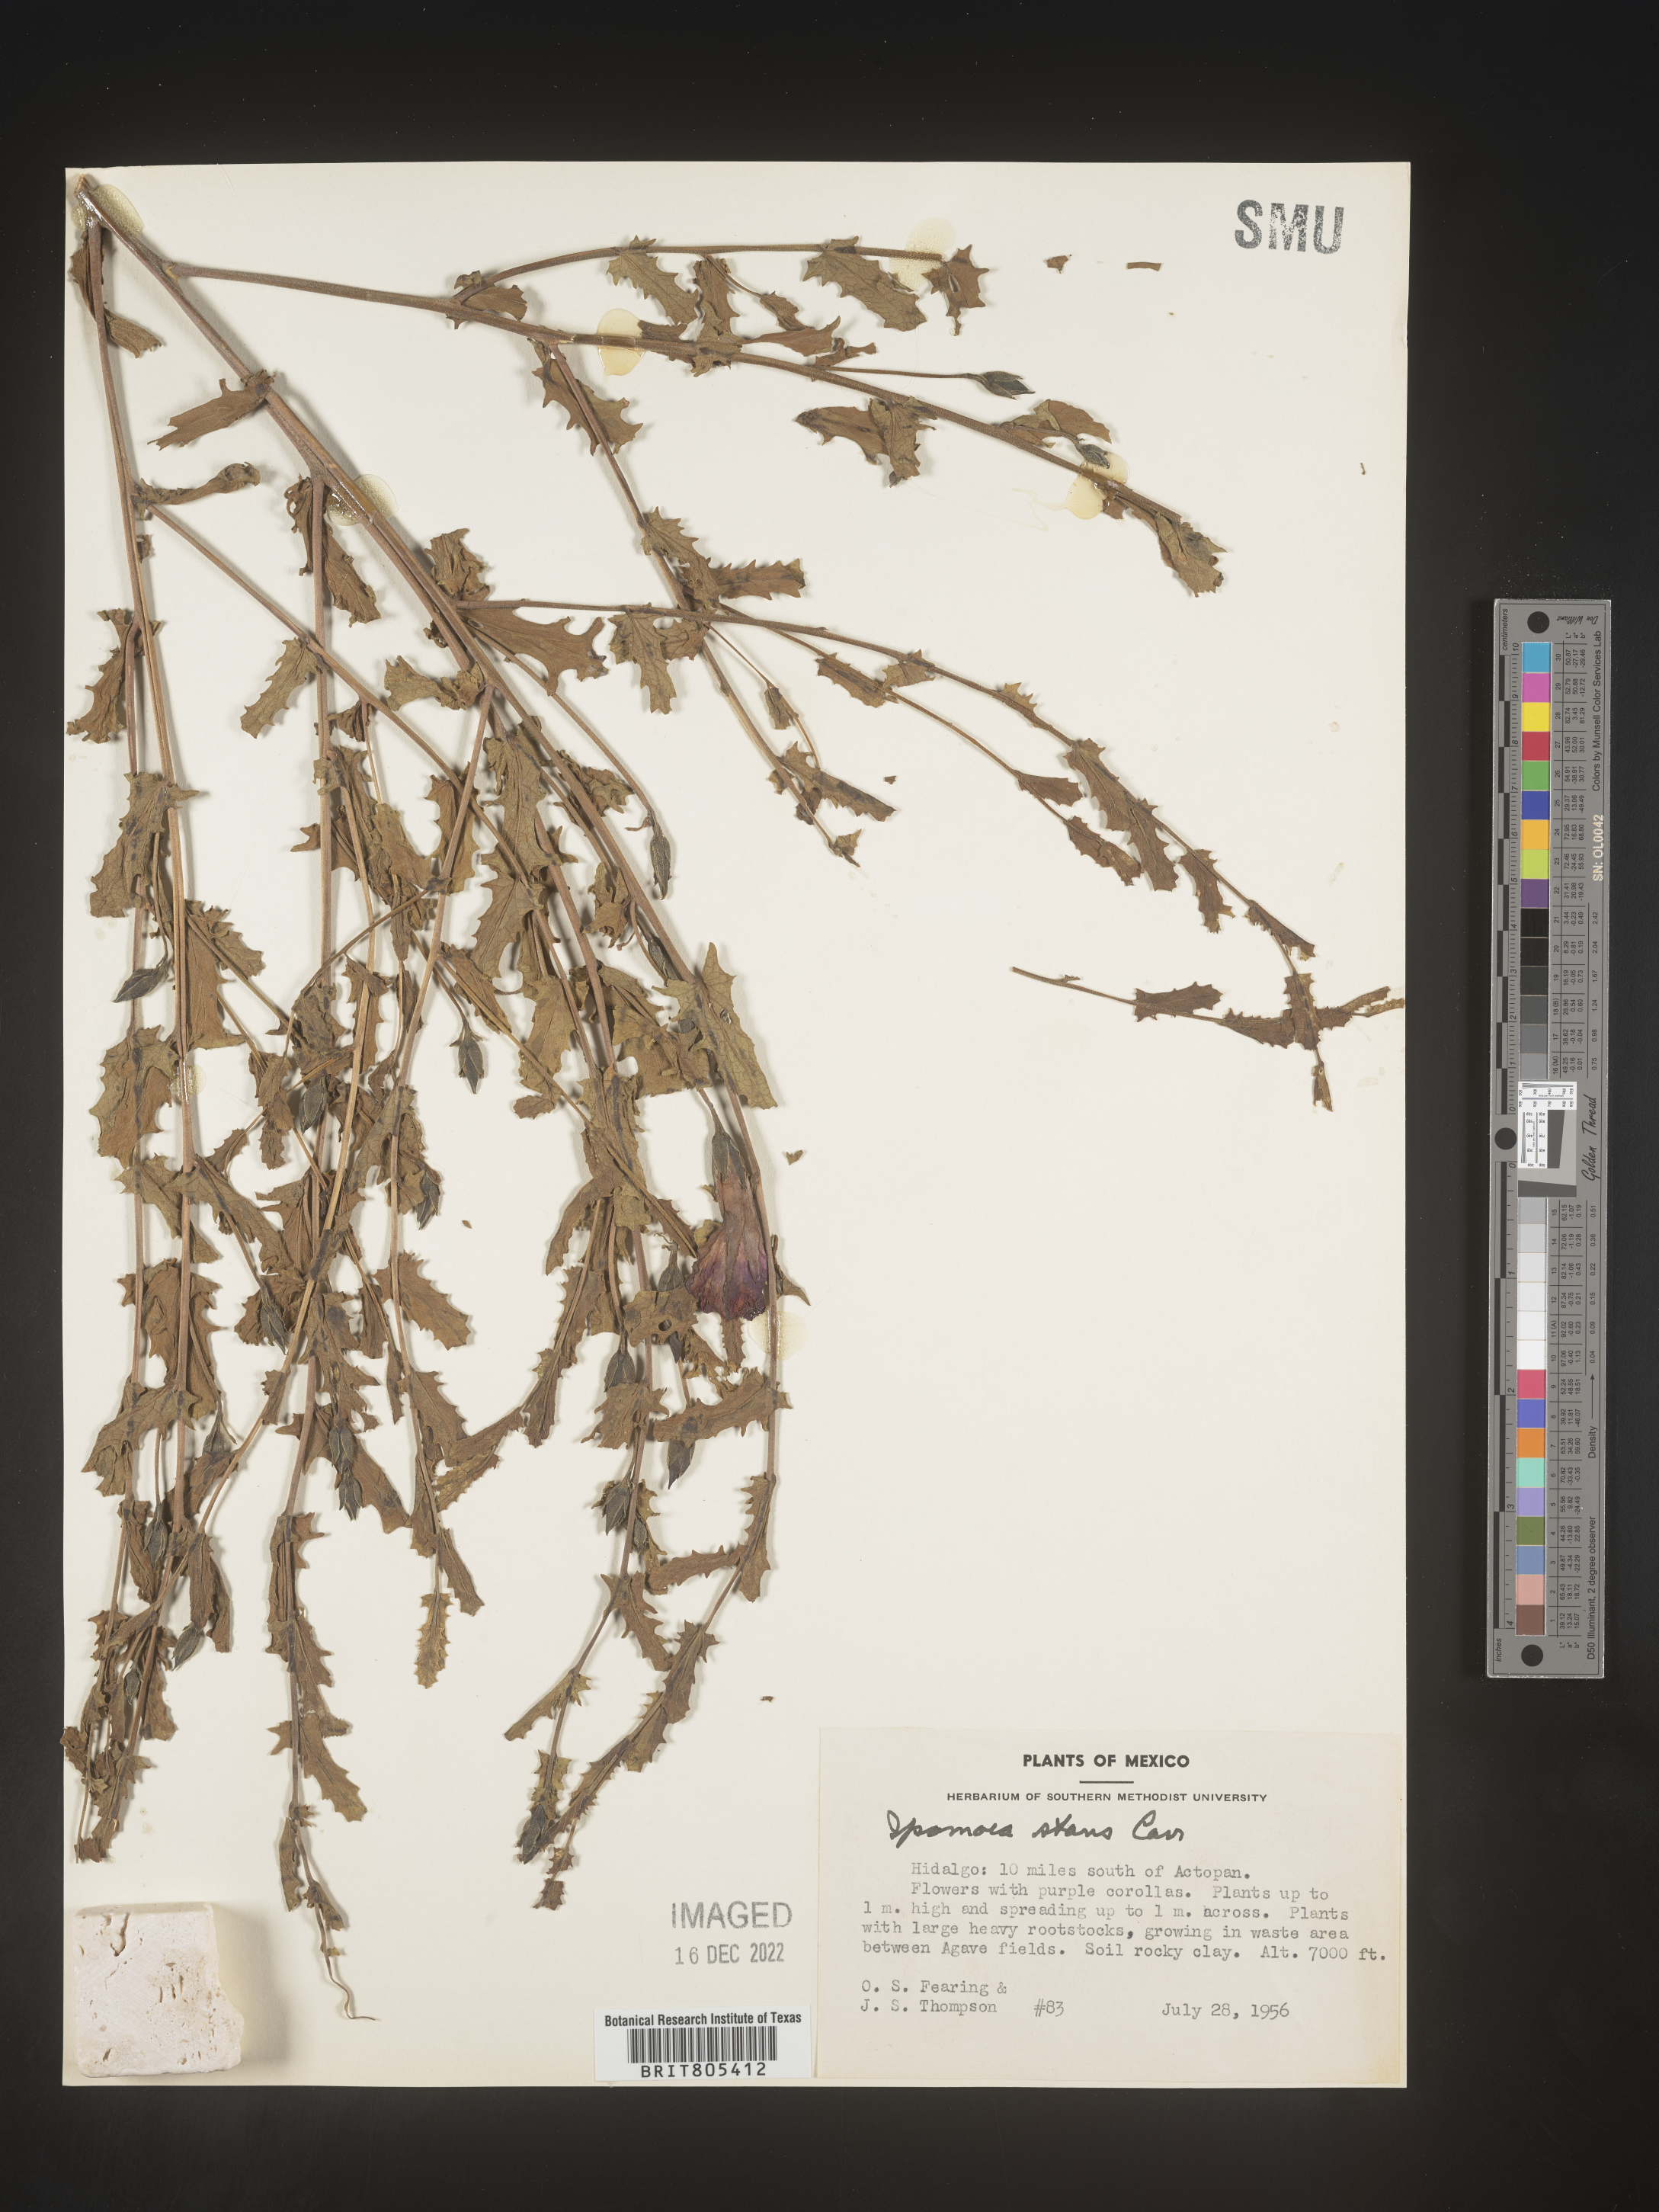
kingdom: Plantae
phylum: Tracheophyta
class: Magnoliopsida
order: Solanales
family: Convolvulaceae
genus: Ipomoea
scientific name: Ipomoea
